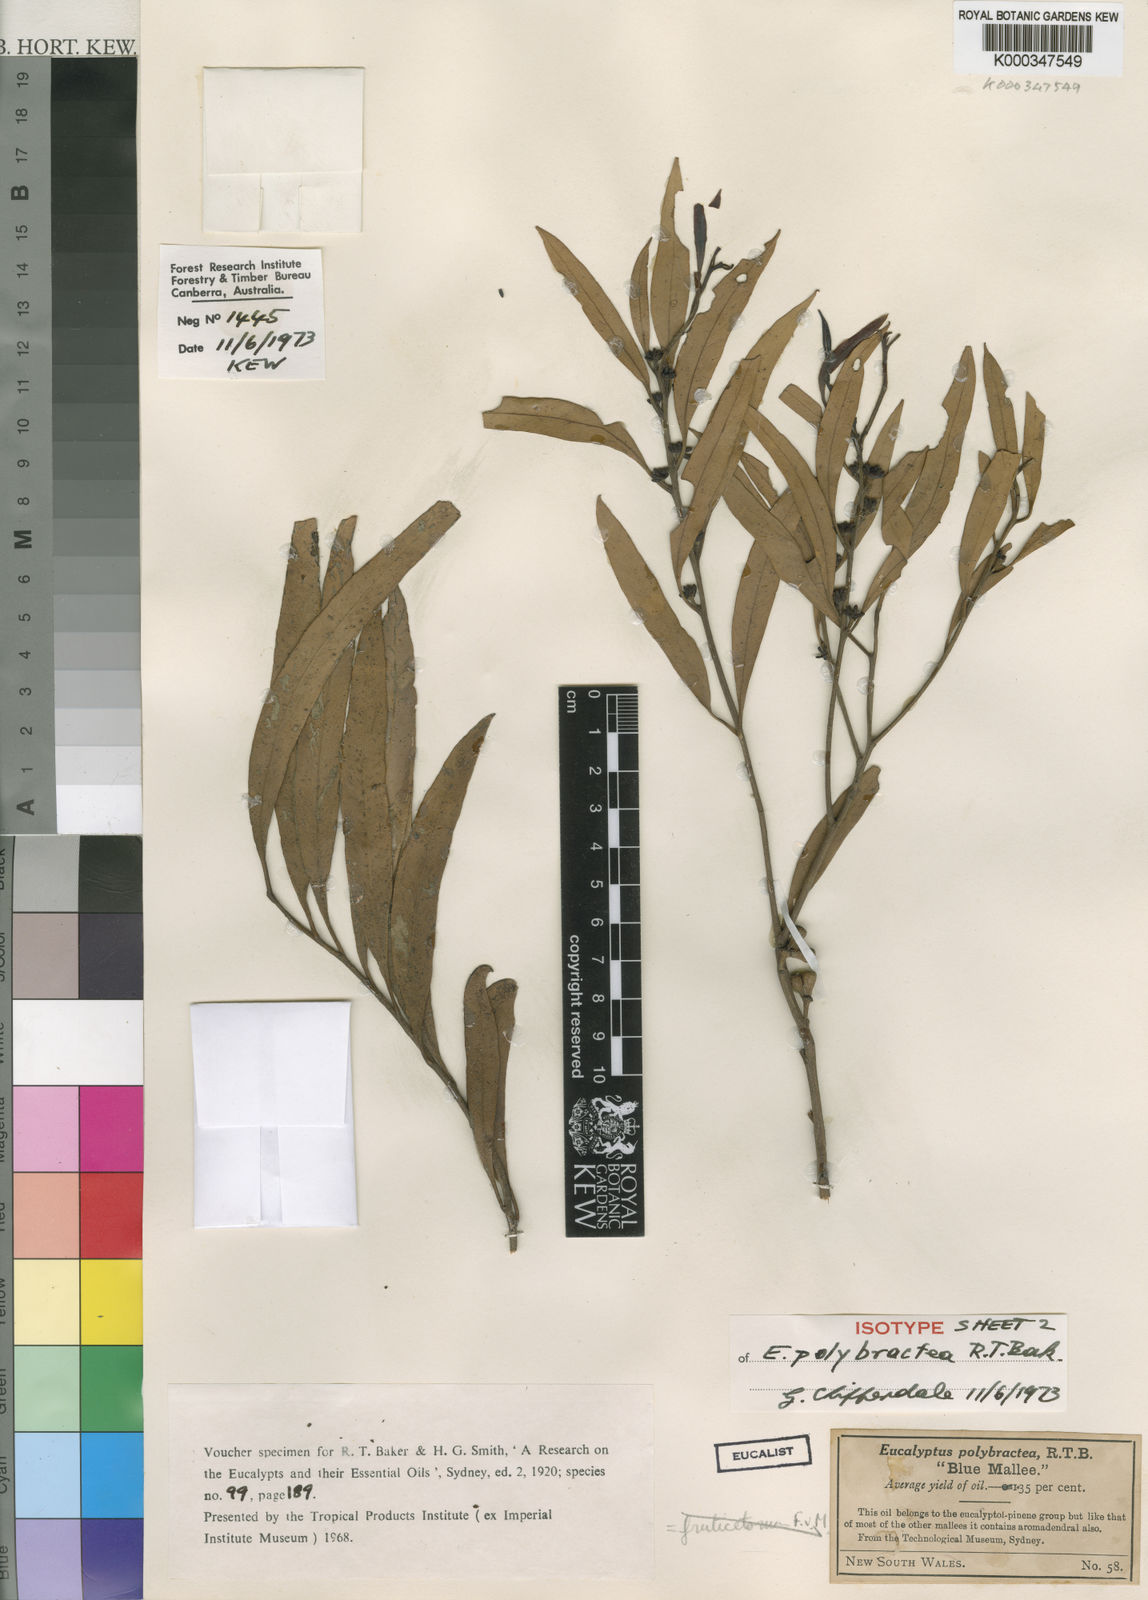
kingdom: Plantae
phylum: Tracheophyta
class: Magnoliopsida
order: Myrtales
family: Myrtaceae
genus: Eucalyptus
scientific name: Eucalyptus polybractea
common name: Blue mallee
